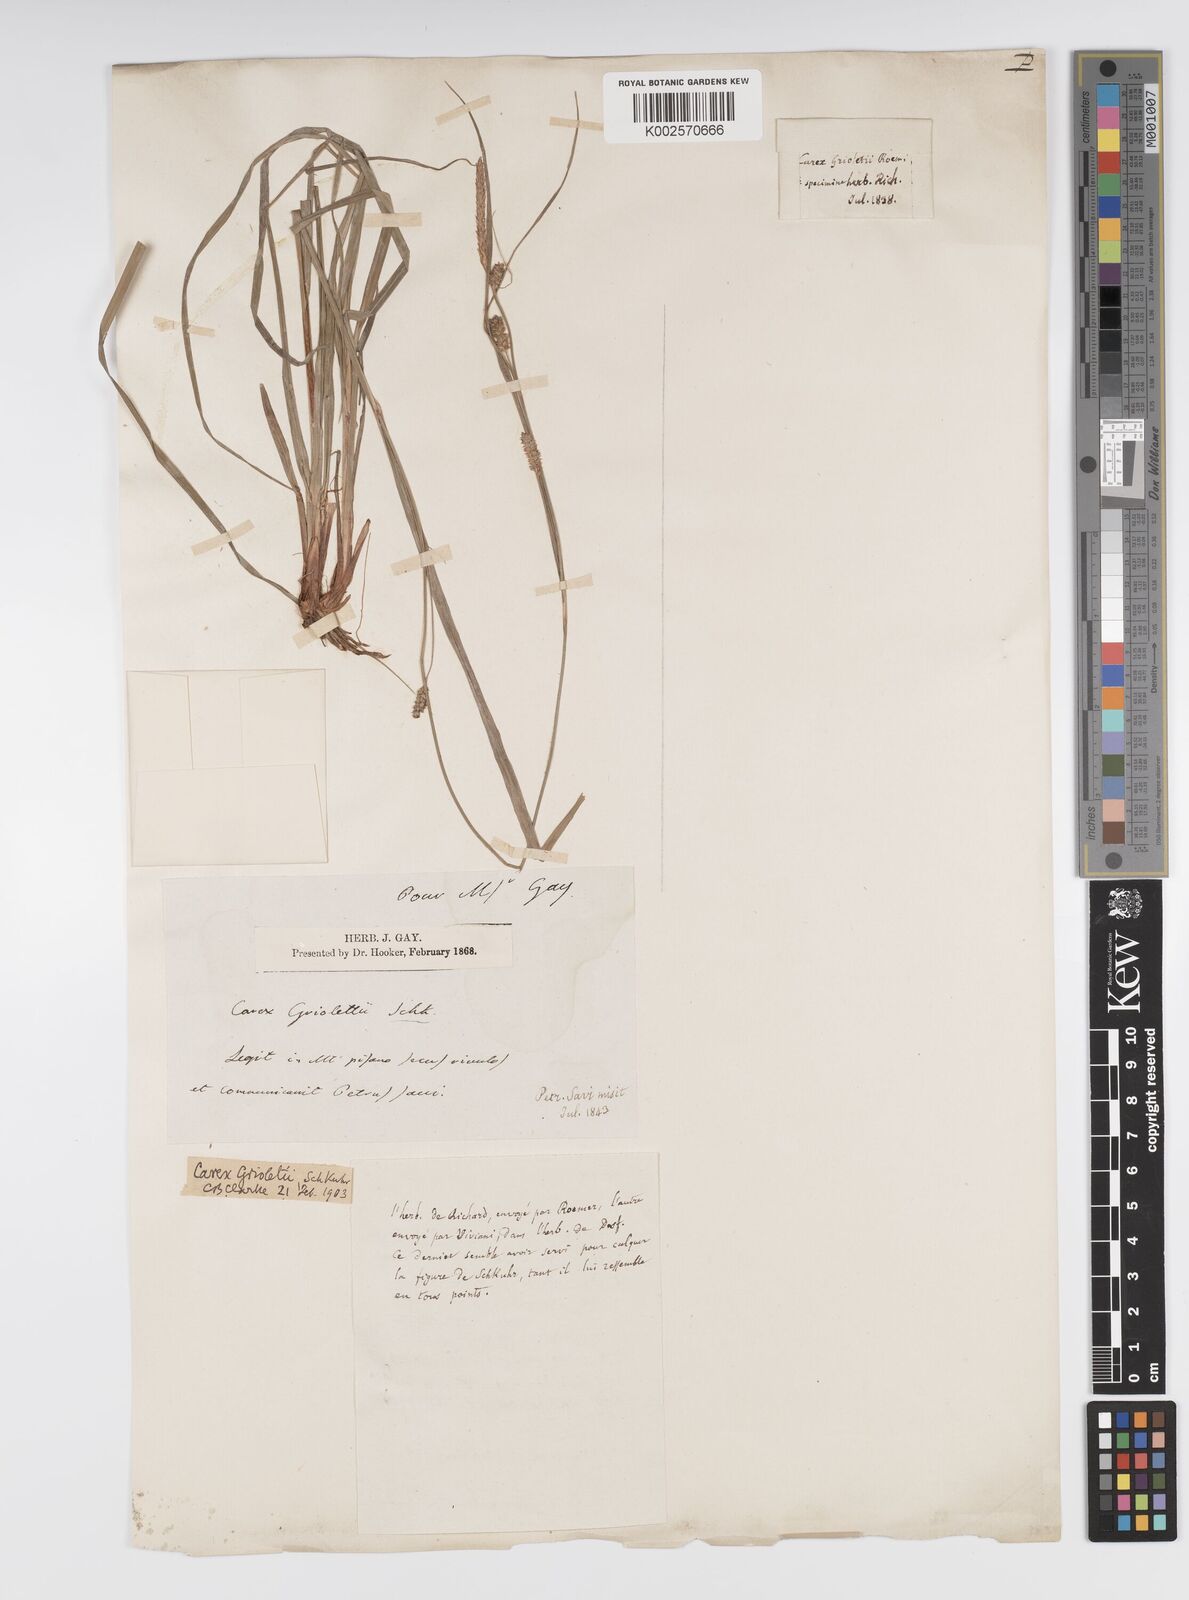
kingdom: Plantae
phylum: Tracheophyta
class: Liliopsida
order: Poales
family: Cyperaceae
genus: Carex
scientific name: Carex grioletii
